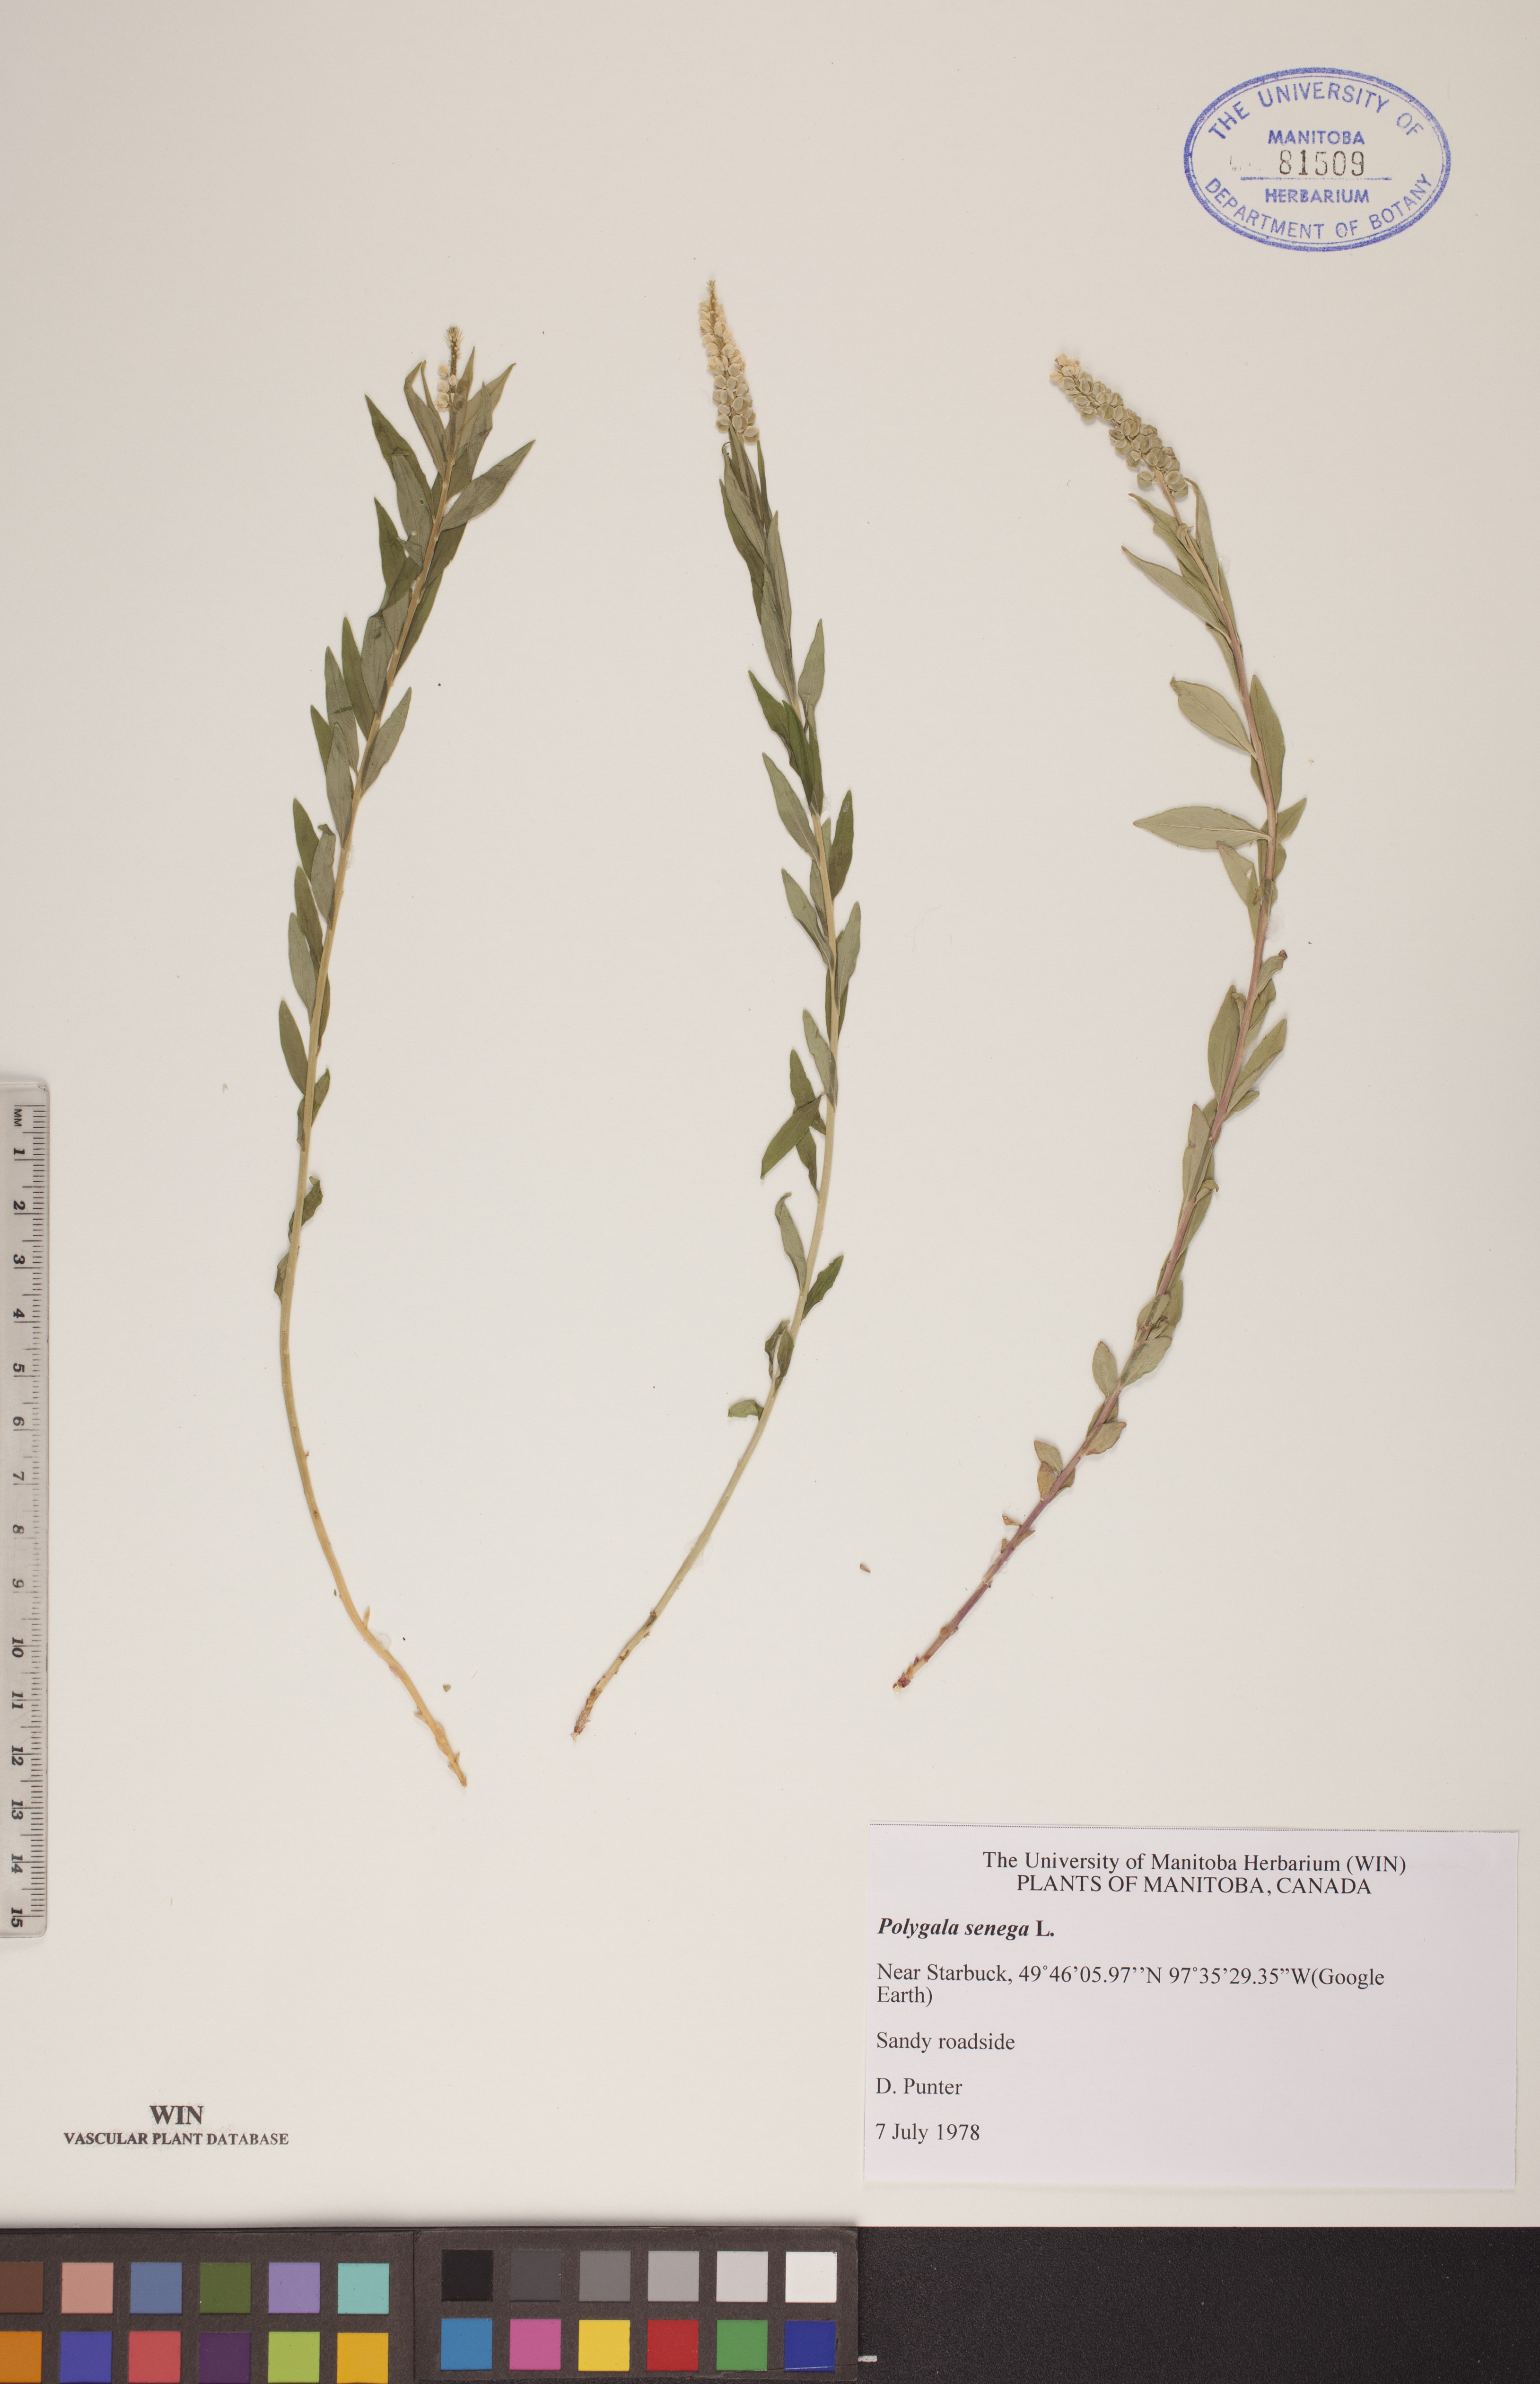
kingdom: Plantae
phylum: Tracheophyta
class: Magnoliopsida
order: Fabales
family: Polygalaceae
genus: Polygala
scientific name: Polygala senega
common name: Seneca snakeroot
